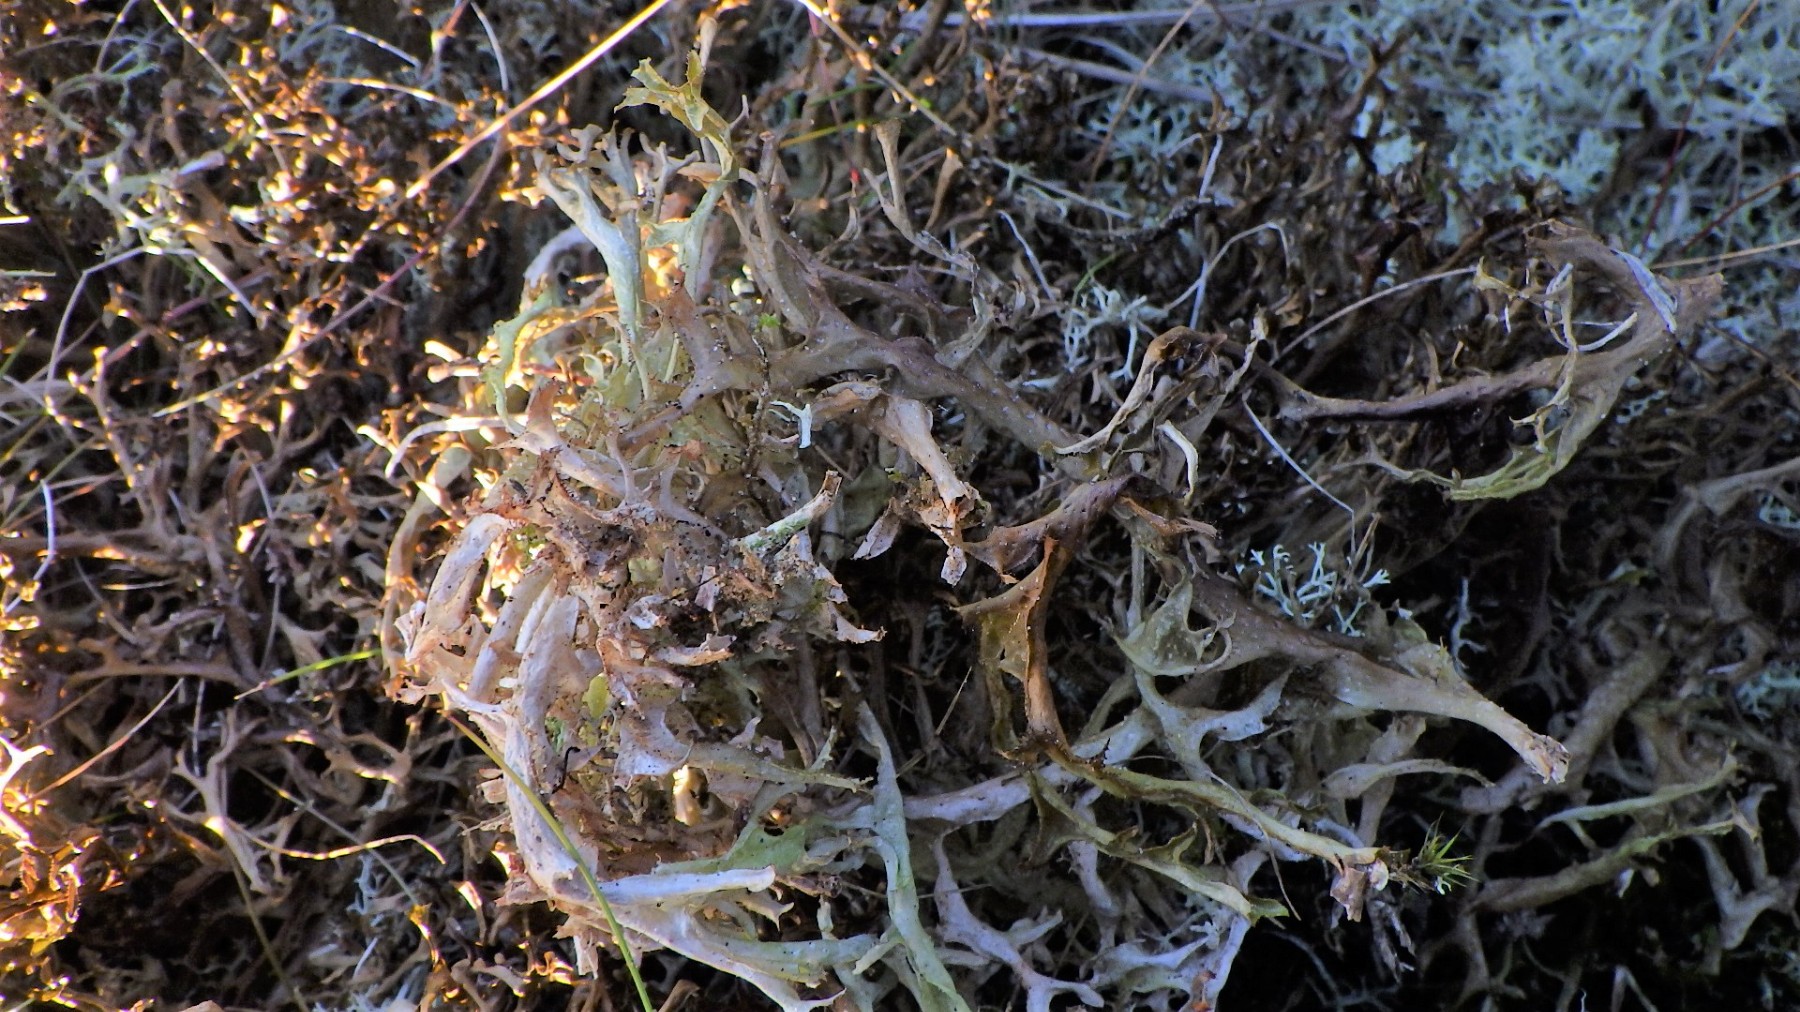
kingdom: Fungi
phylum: Ascomycota
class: Lecanoromycetes
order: Lecanorales
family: Parmeliaceae
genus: Cetraria
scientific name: Cetraria islandica
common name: islandsk kruslav
